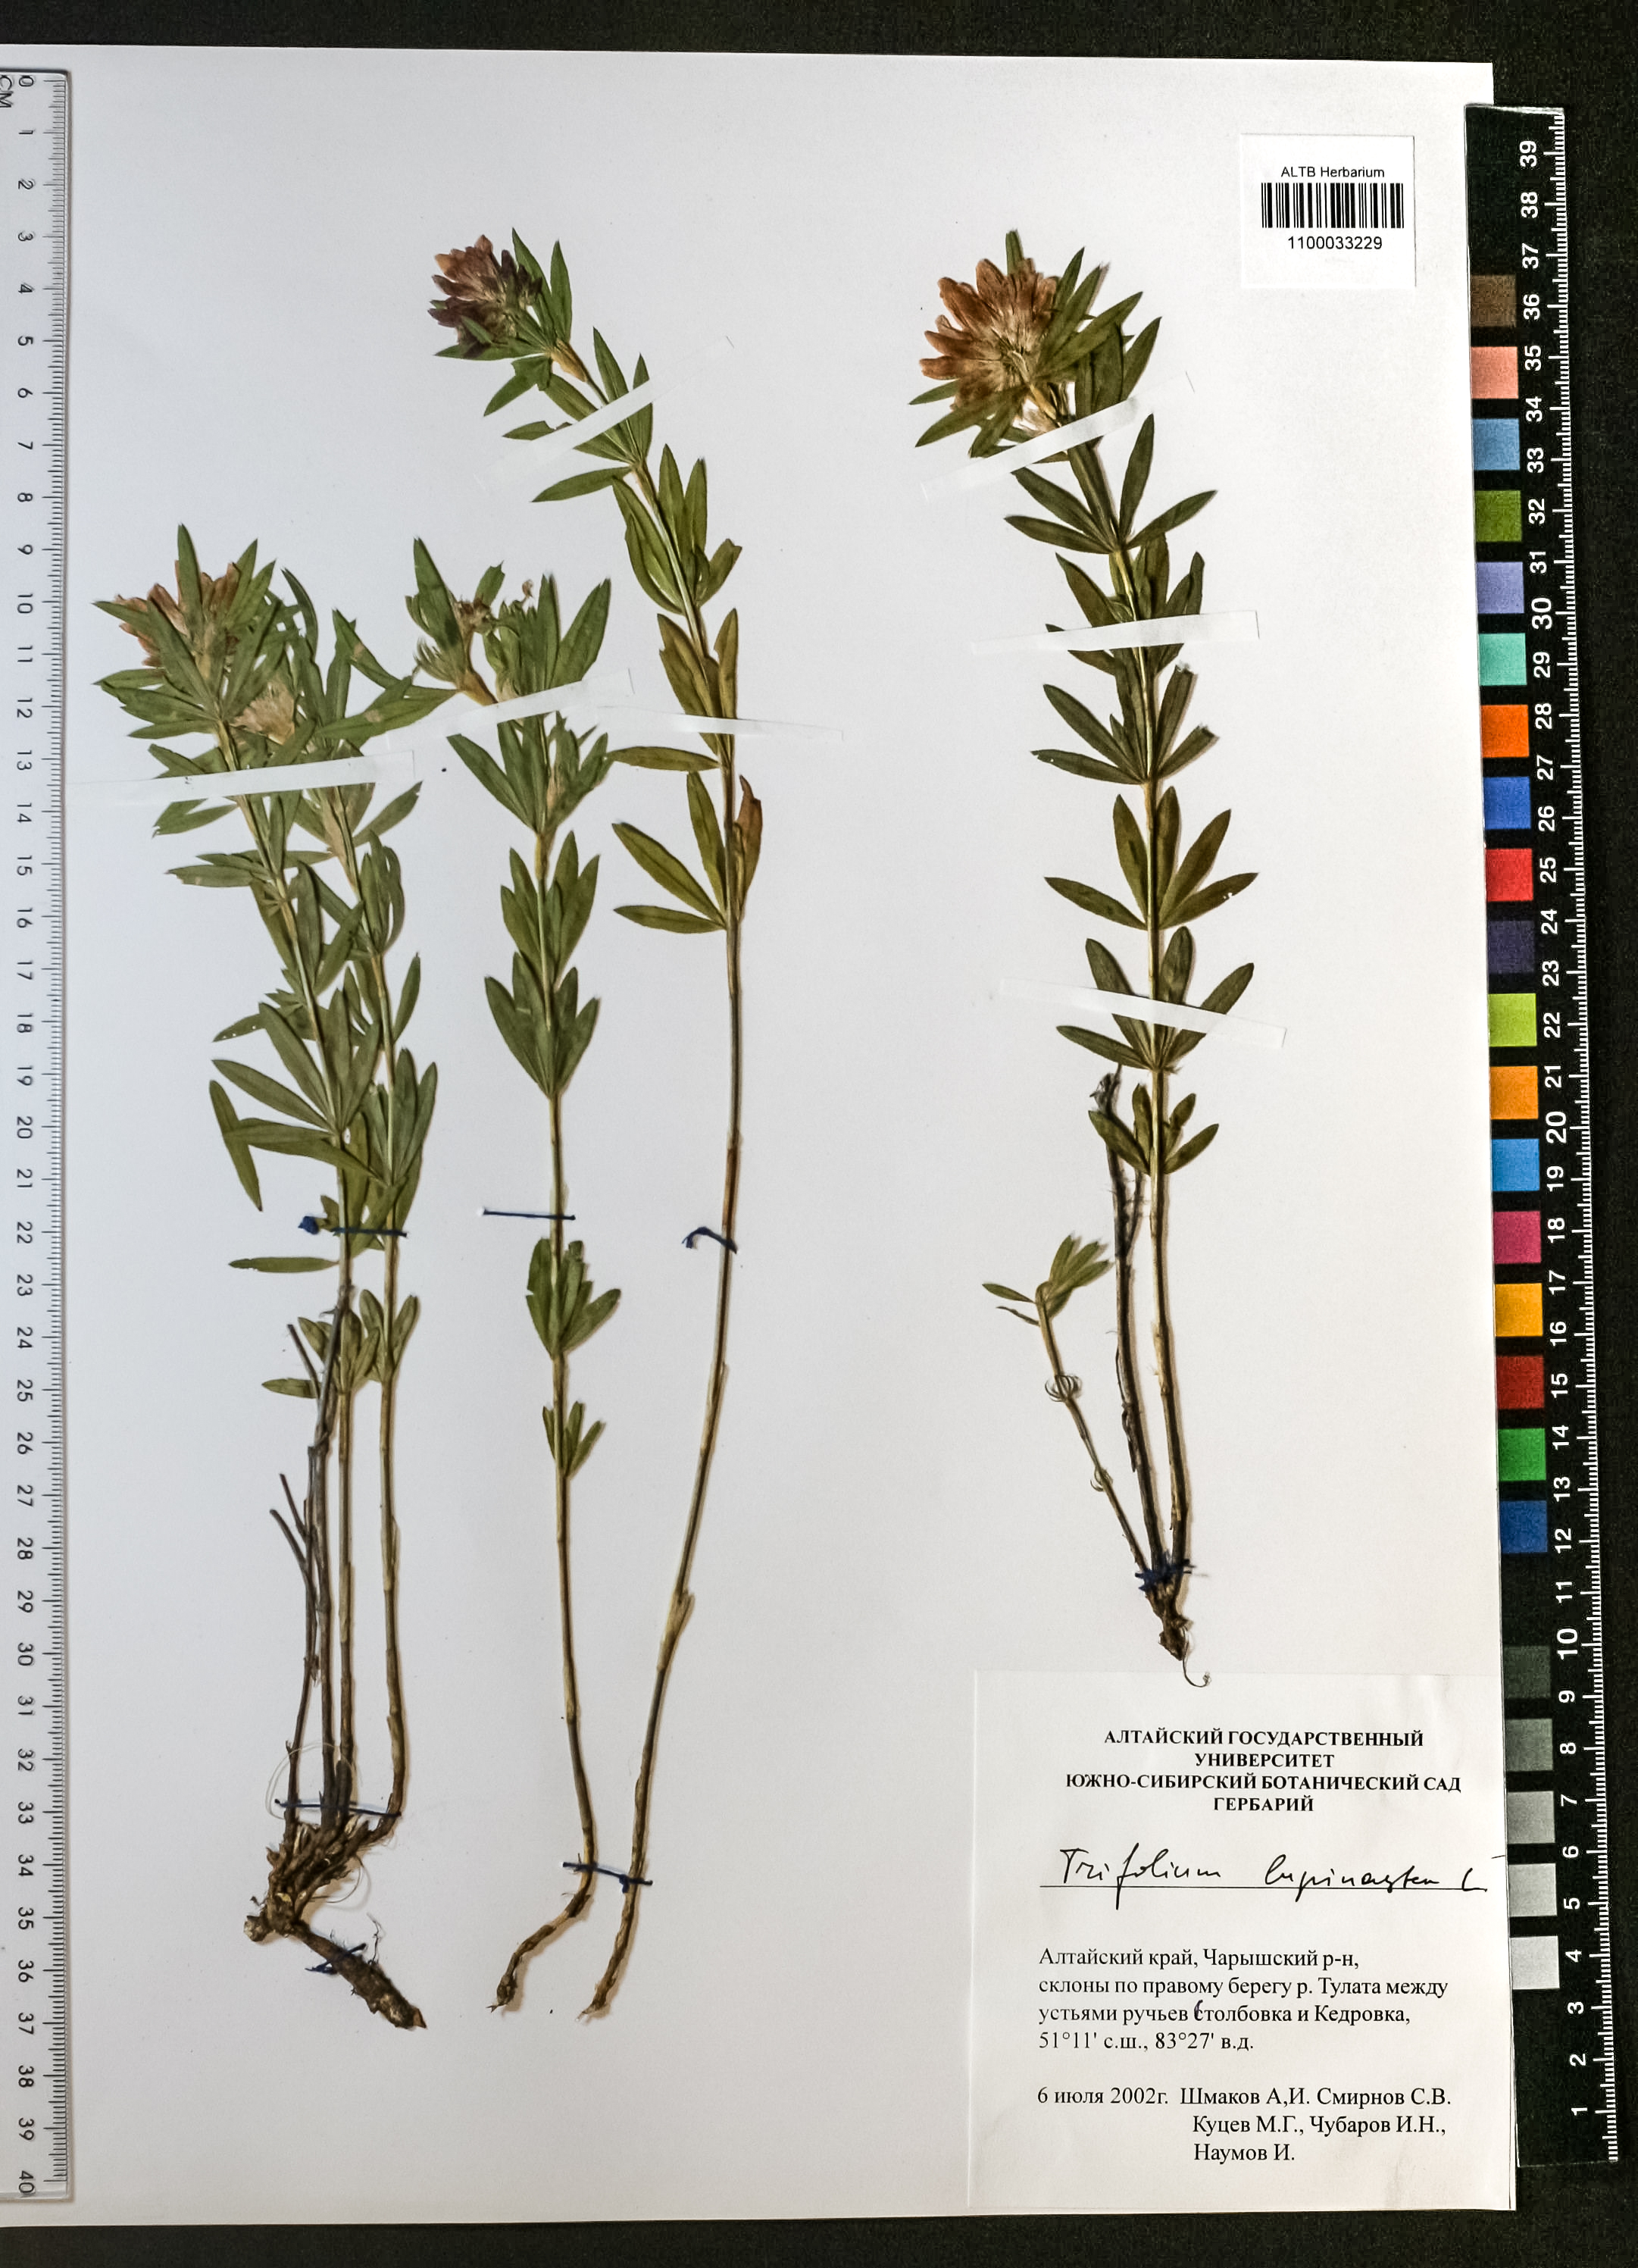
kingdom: Plantae
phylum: Tracheophyta
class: Magnoliopsida
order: Fabales
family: Fabaceae
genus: Trifolium
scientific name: Trifolium lupinaster
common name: Lupine clover
